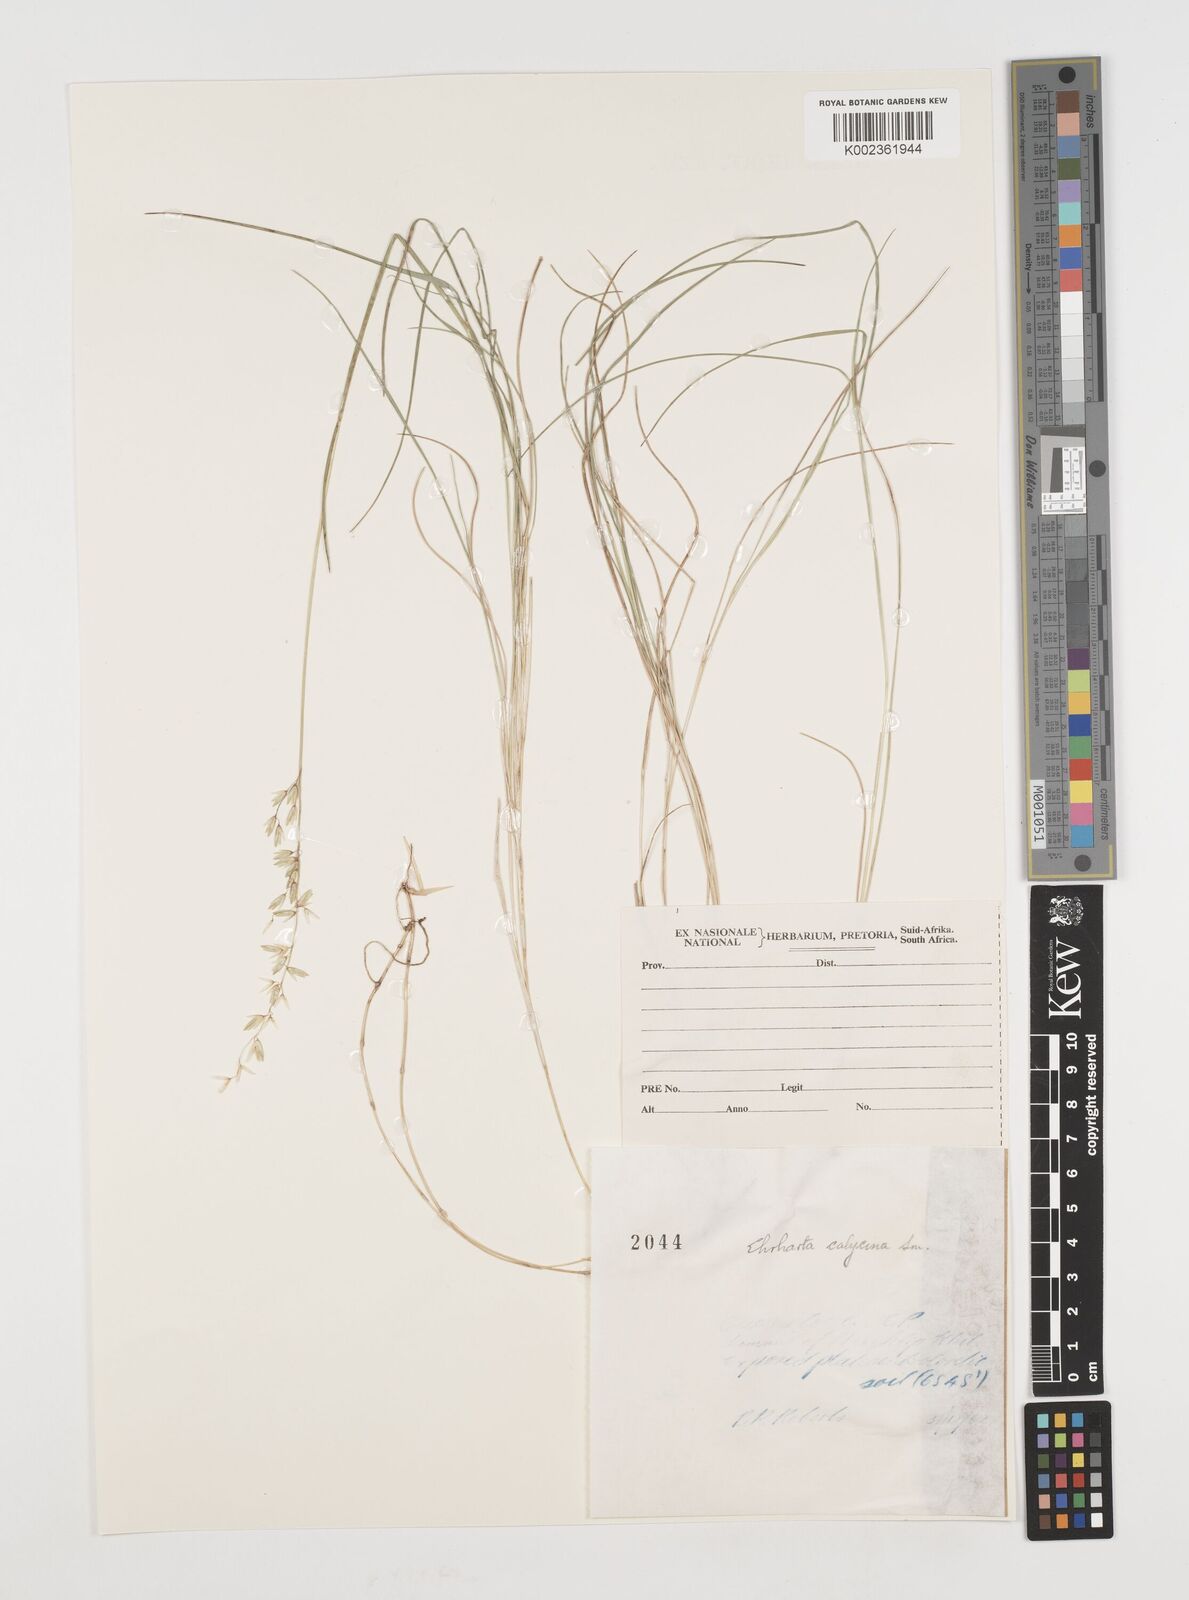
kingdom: Plantae
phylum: Tracheophyta
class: Liliopsida
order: Poales
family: Poaceae
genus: Ehrharta
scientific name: Ehrharta calycina
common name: Perennial veldtgrass
